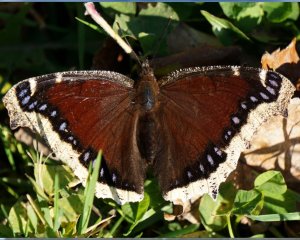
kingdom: Animalia
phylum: Arthropoda
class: Insecta
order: Lepidoptera
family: Nymphalidae
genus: Nymphalis
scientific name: Nymphalis antiopa
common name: Mourning Cloak
